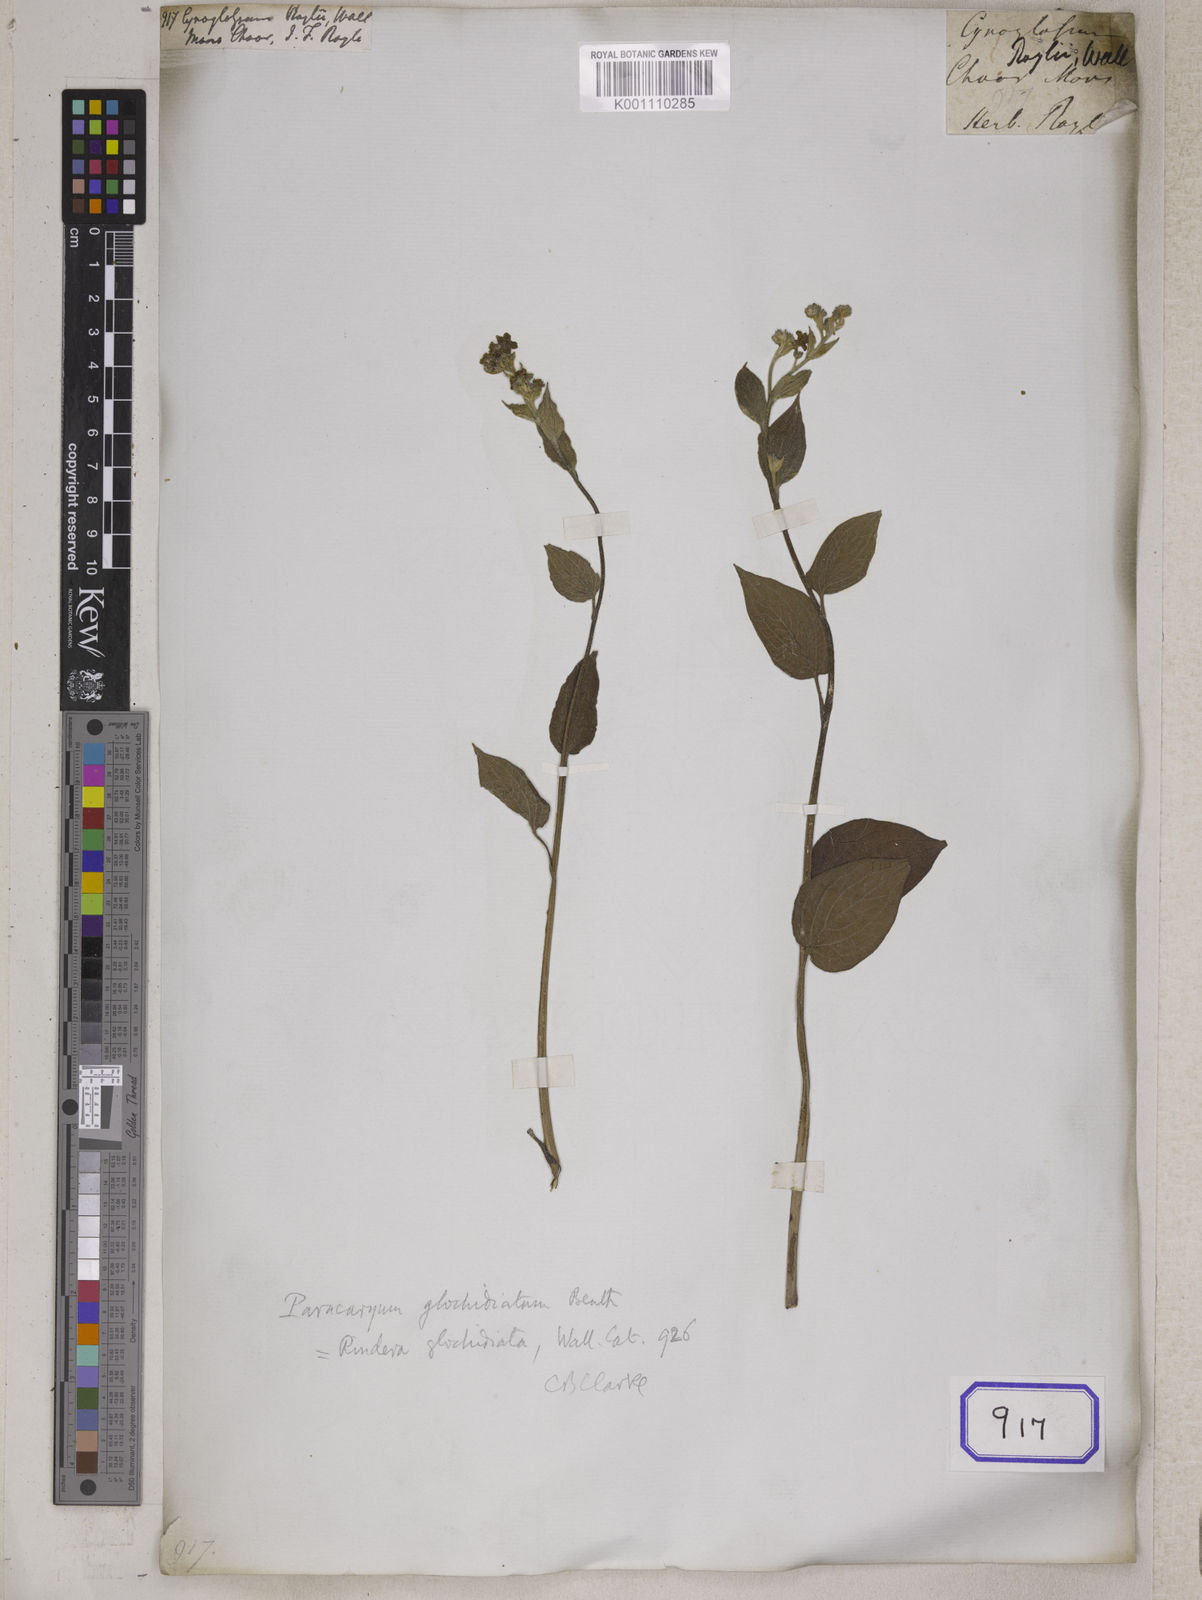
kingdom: Plantae
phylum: Tracheophyta
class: Magnoliopsida
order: Boraginales
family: Boraginaceae
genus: Cynoglossum
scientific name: Cynoglossum
